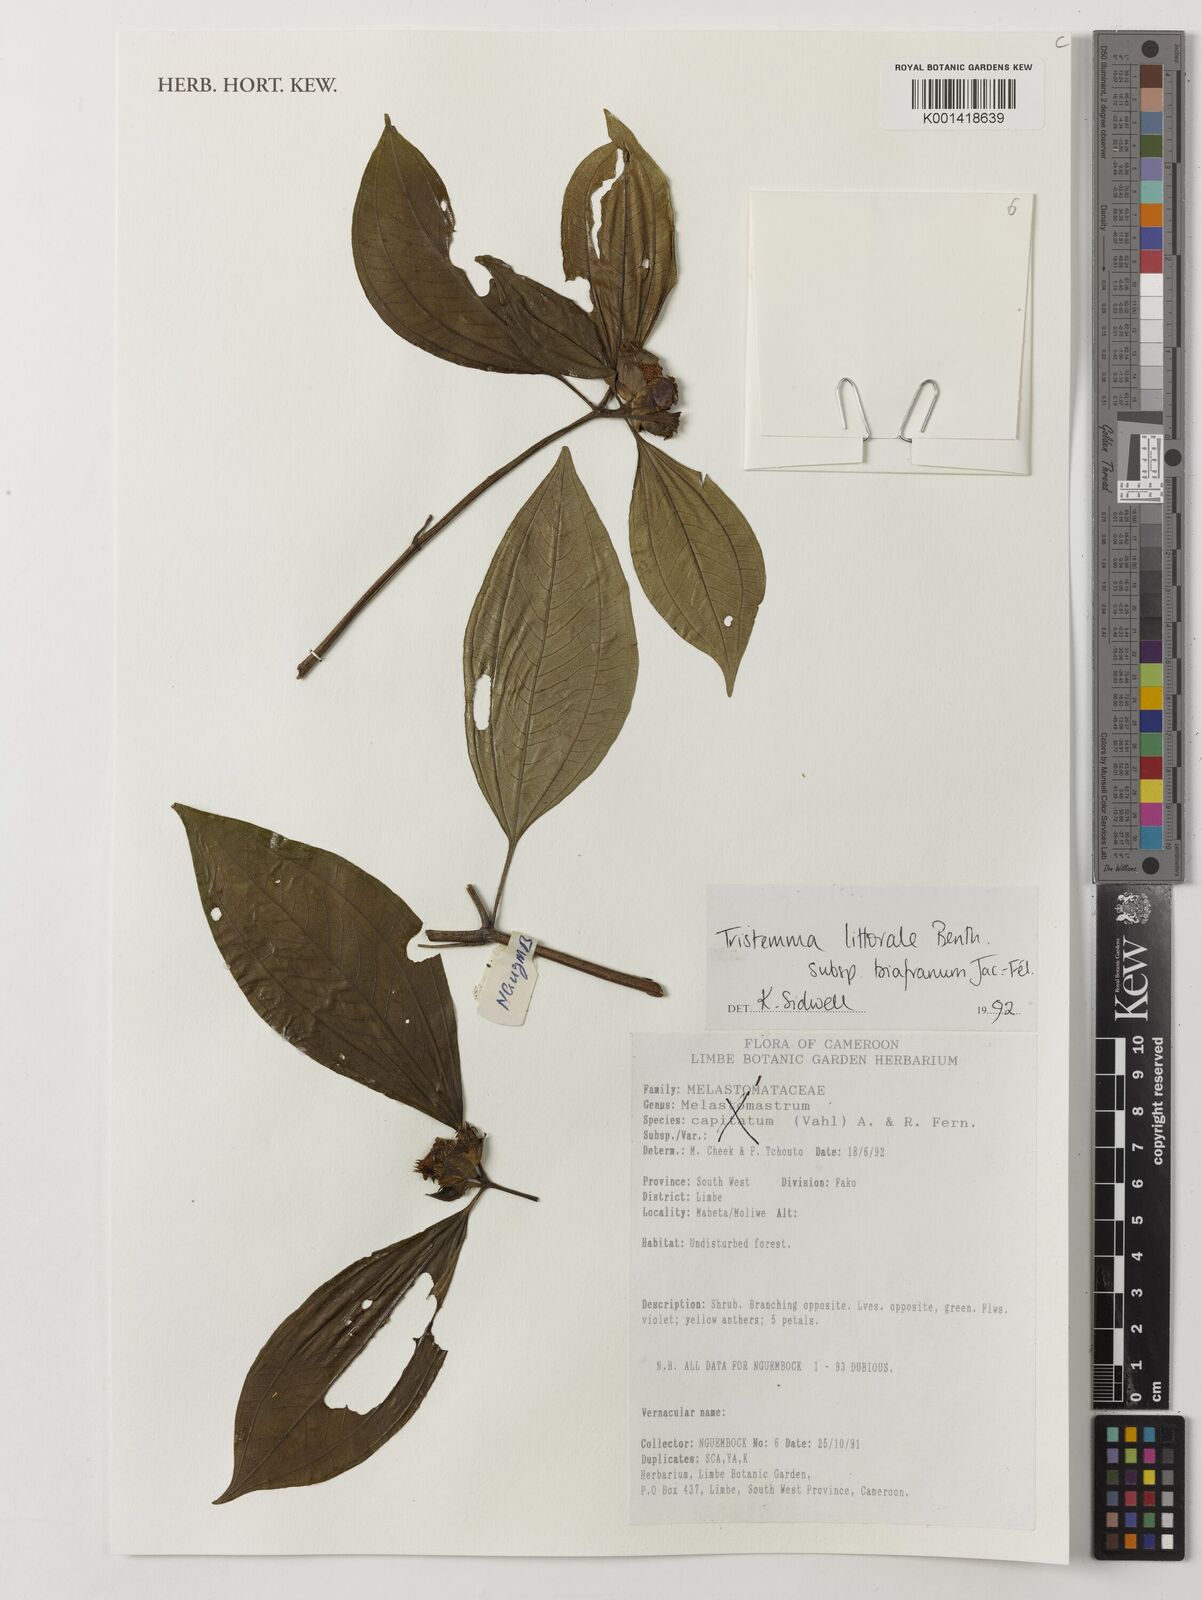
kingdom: Plantae
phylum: Tracheophyta
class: Magnoliopsida
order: Myrtales
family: Melastomataceae
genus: Tristemma
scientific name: Tristemma littorale
